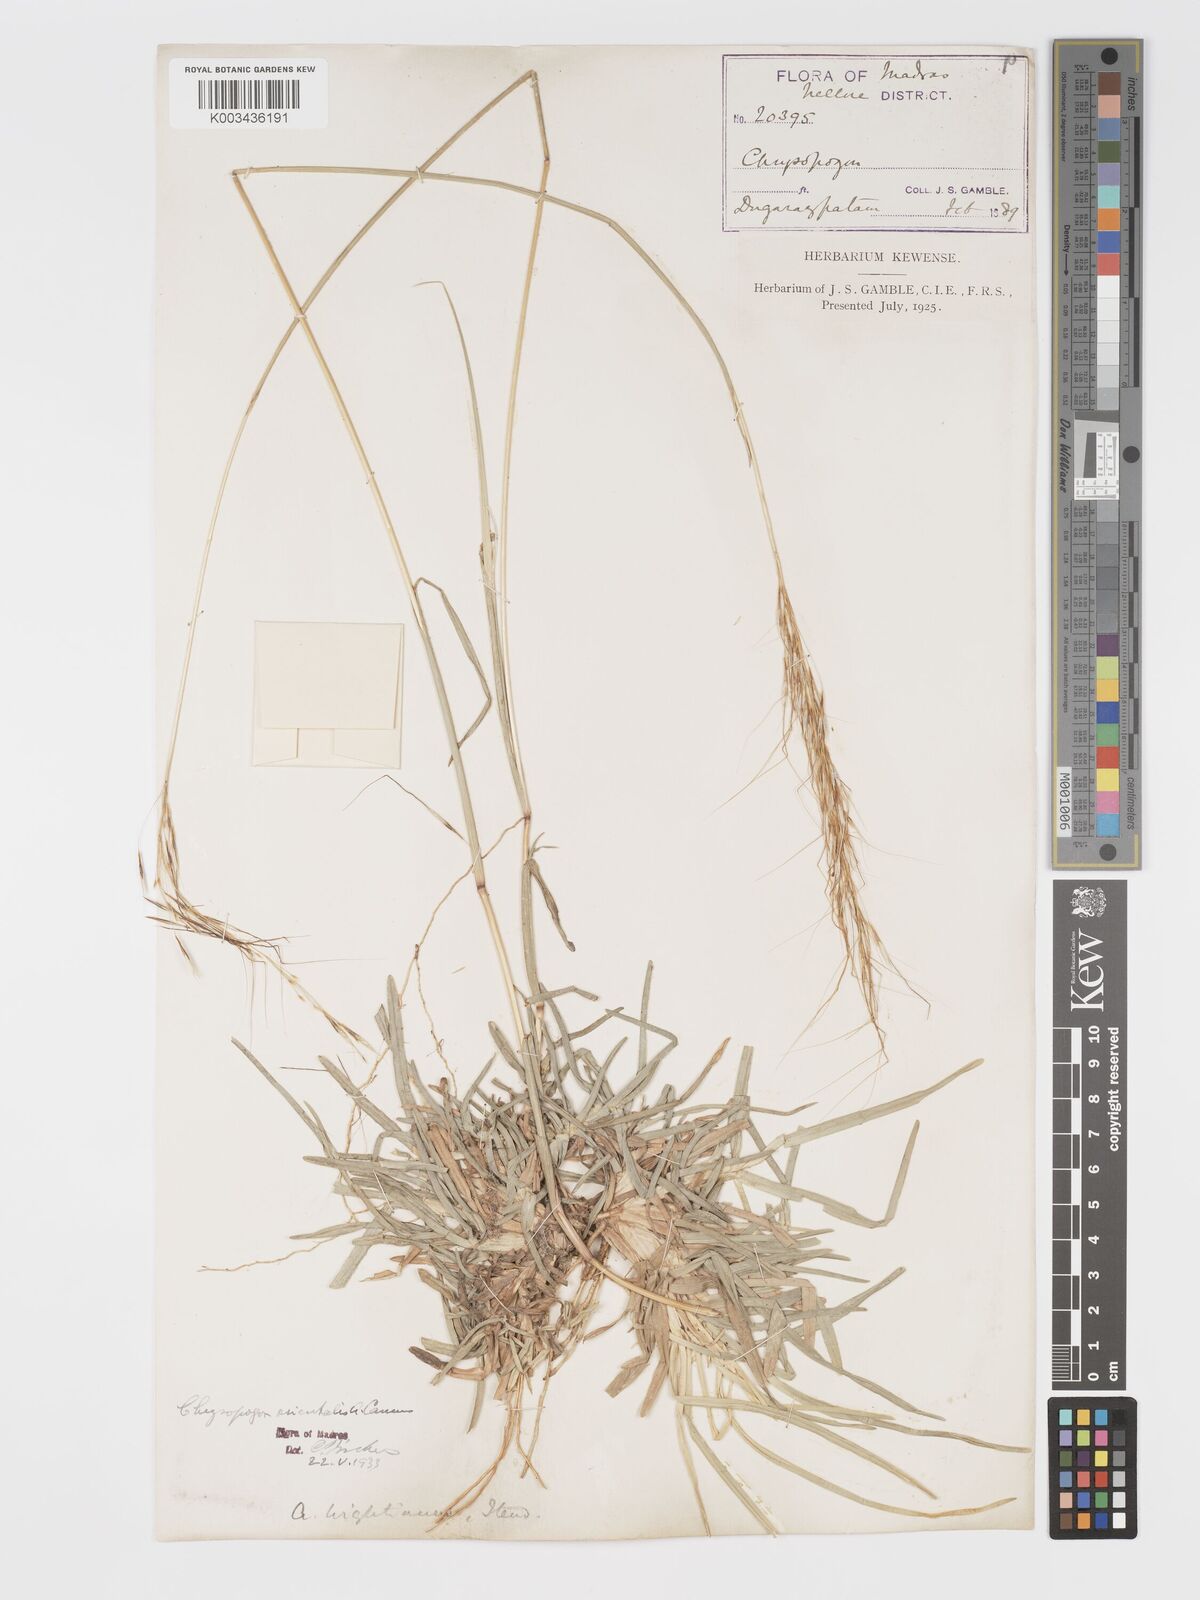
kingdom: Plantae
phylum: Tracheophyta
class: Liliopsida
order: Poales
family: Poaceae
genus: Chrysopogon
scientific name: Chrysopogon orientalis
